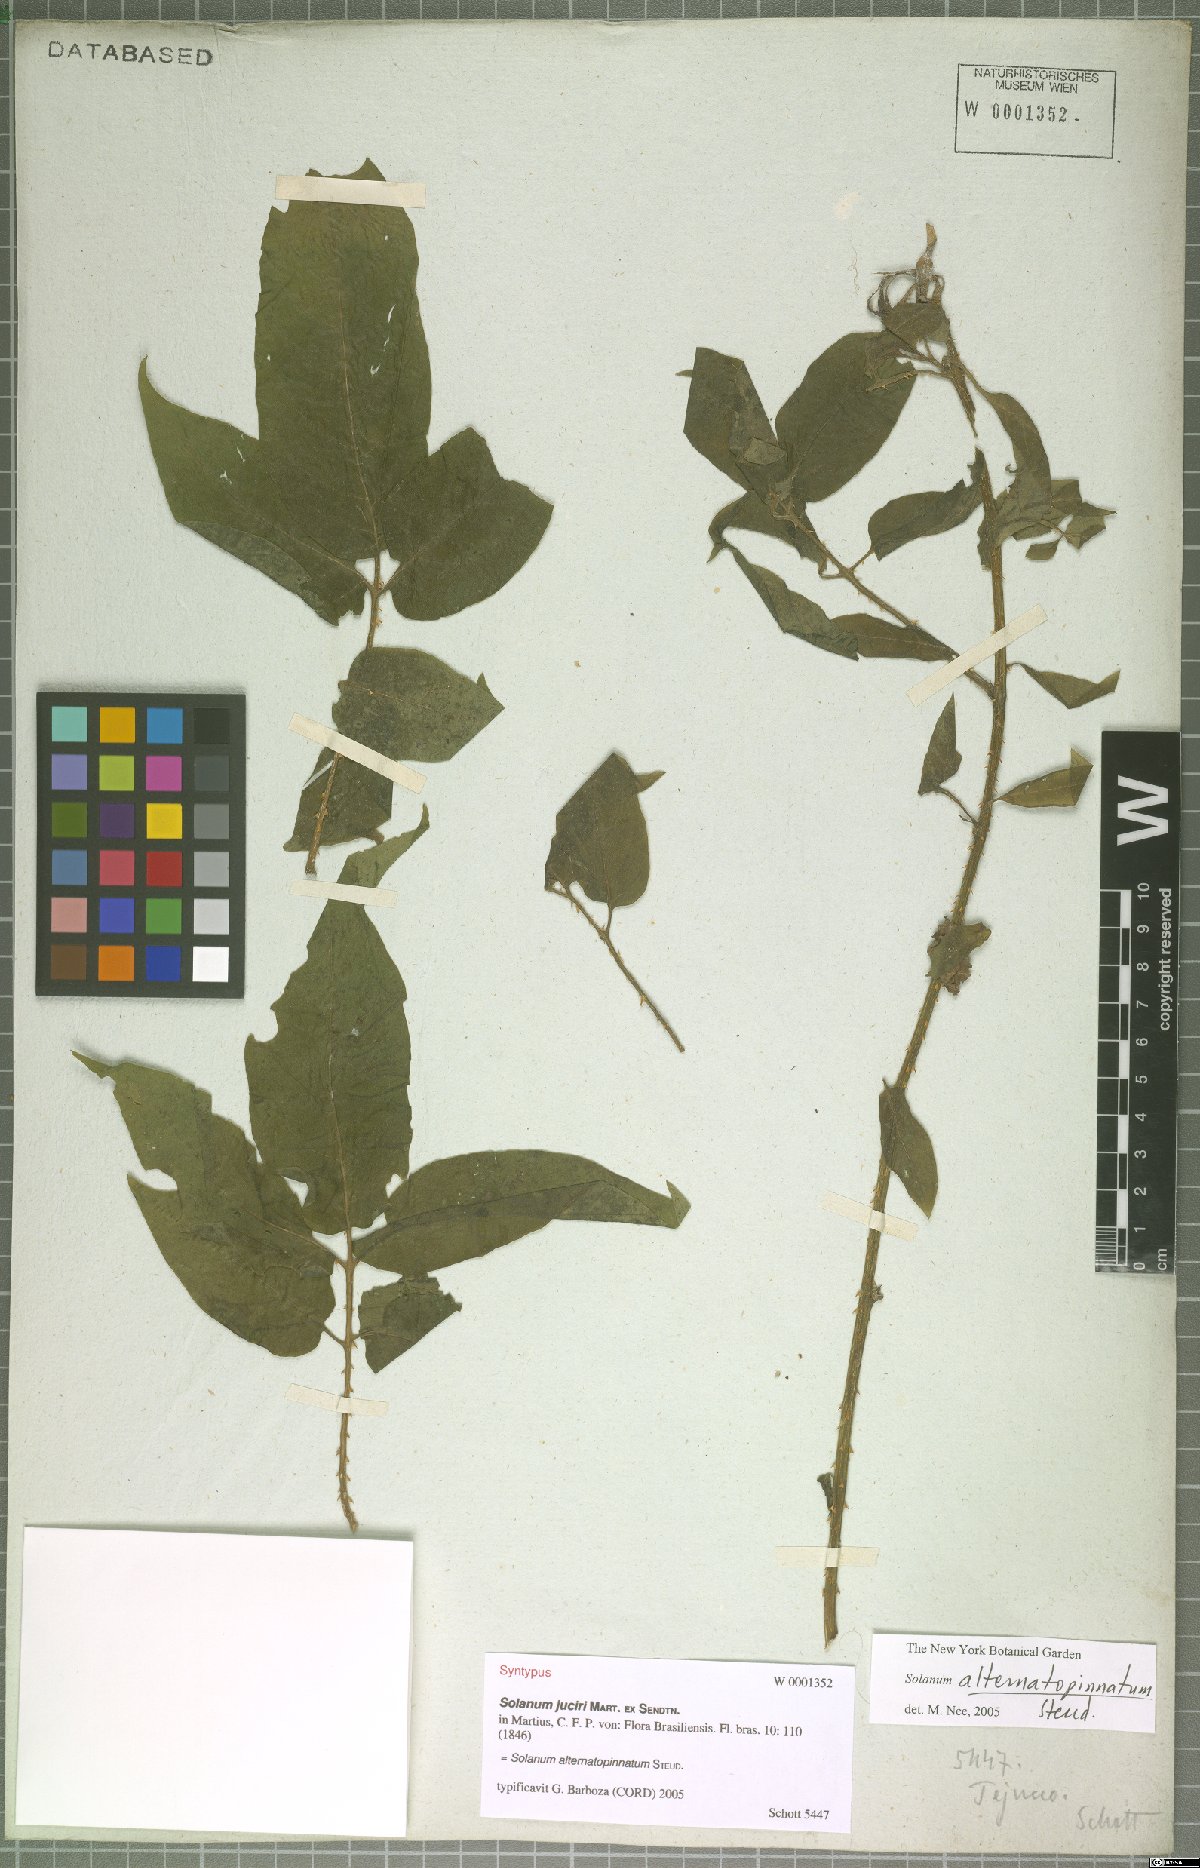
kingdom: Plantae
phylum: Tracheophyta
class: Magnoliopsida
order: Solanales
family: Solanaceae
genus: Solanum
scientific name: Solanum alternatopinnatum
